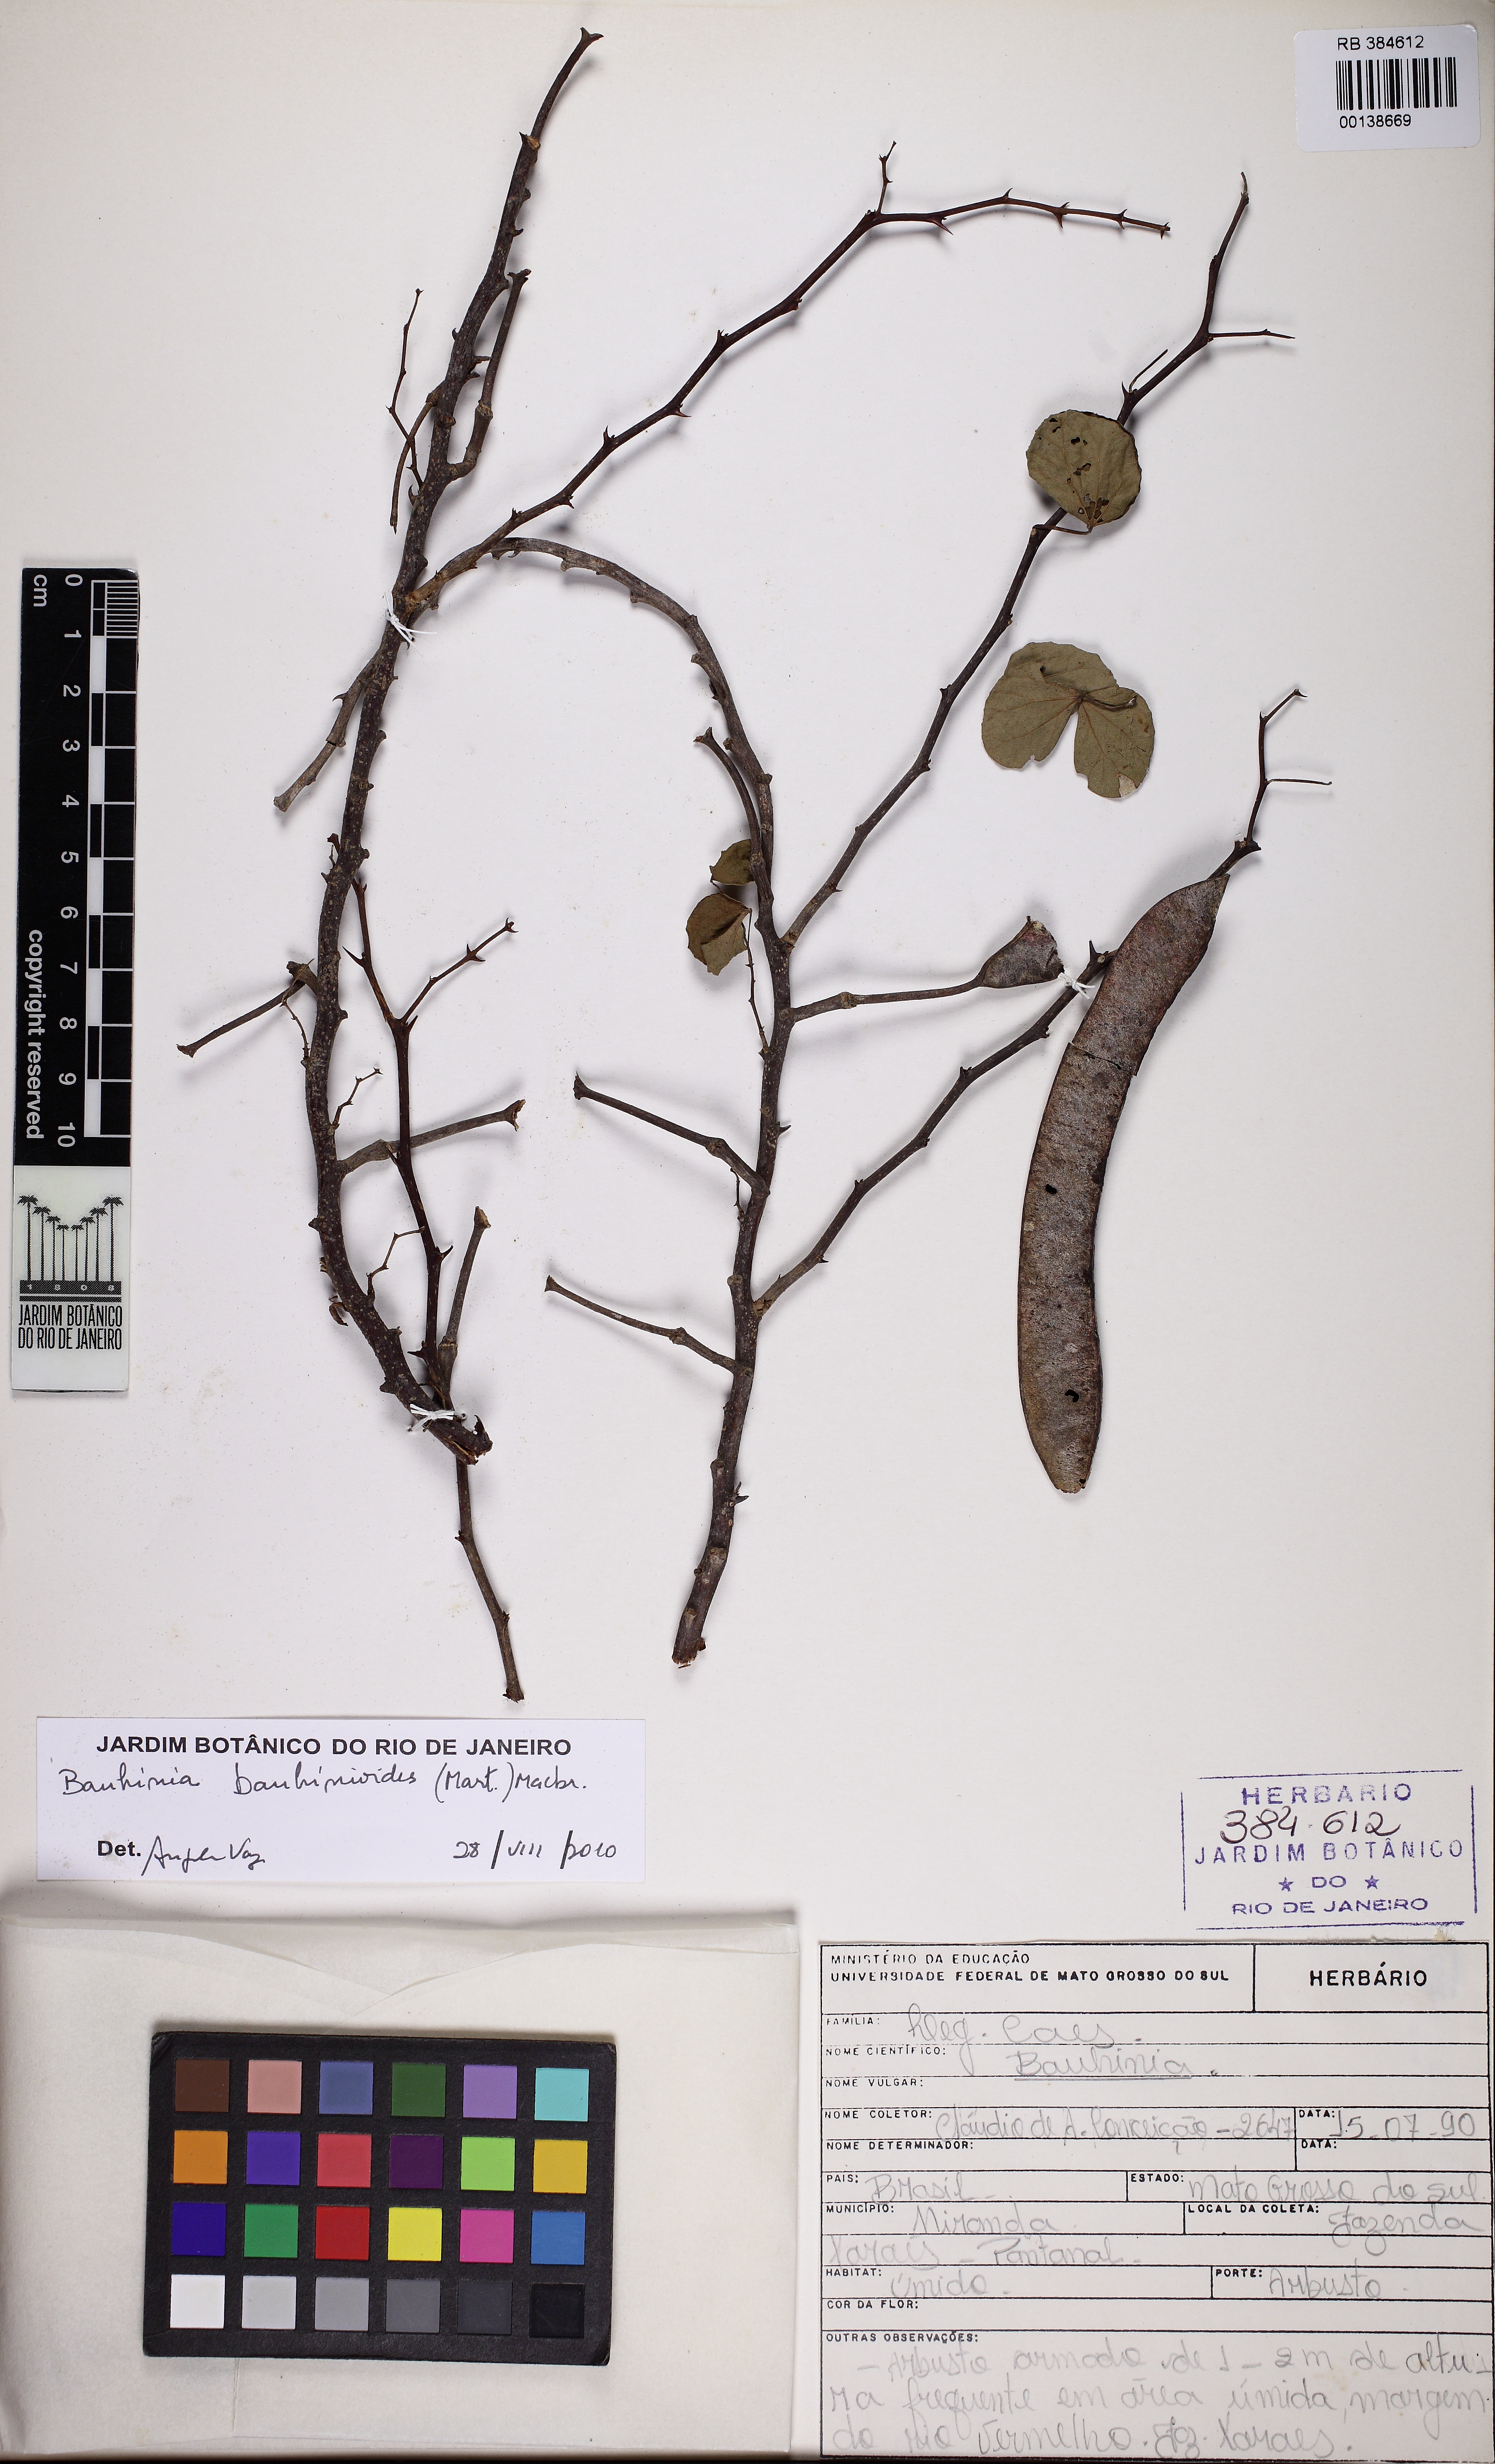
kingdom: Plantae
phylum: Tracheophyta
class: Magnoliopsida
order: Fabales
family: Fabaceae
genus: Bauhinia
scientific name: Bauhinia bauhinioides
